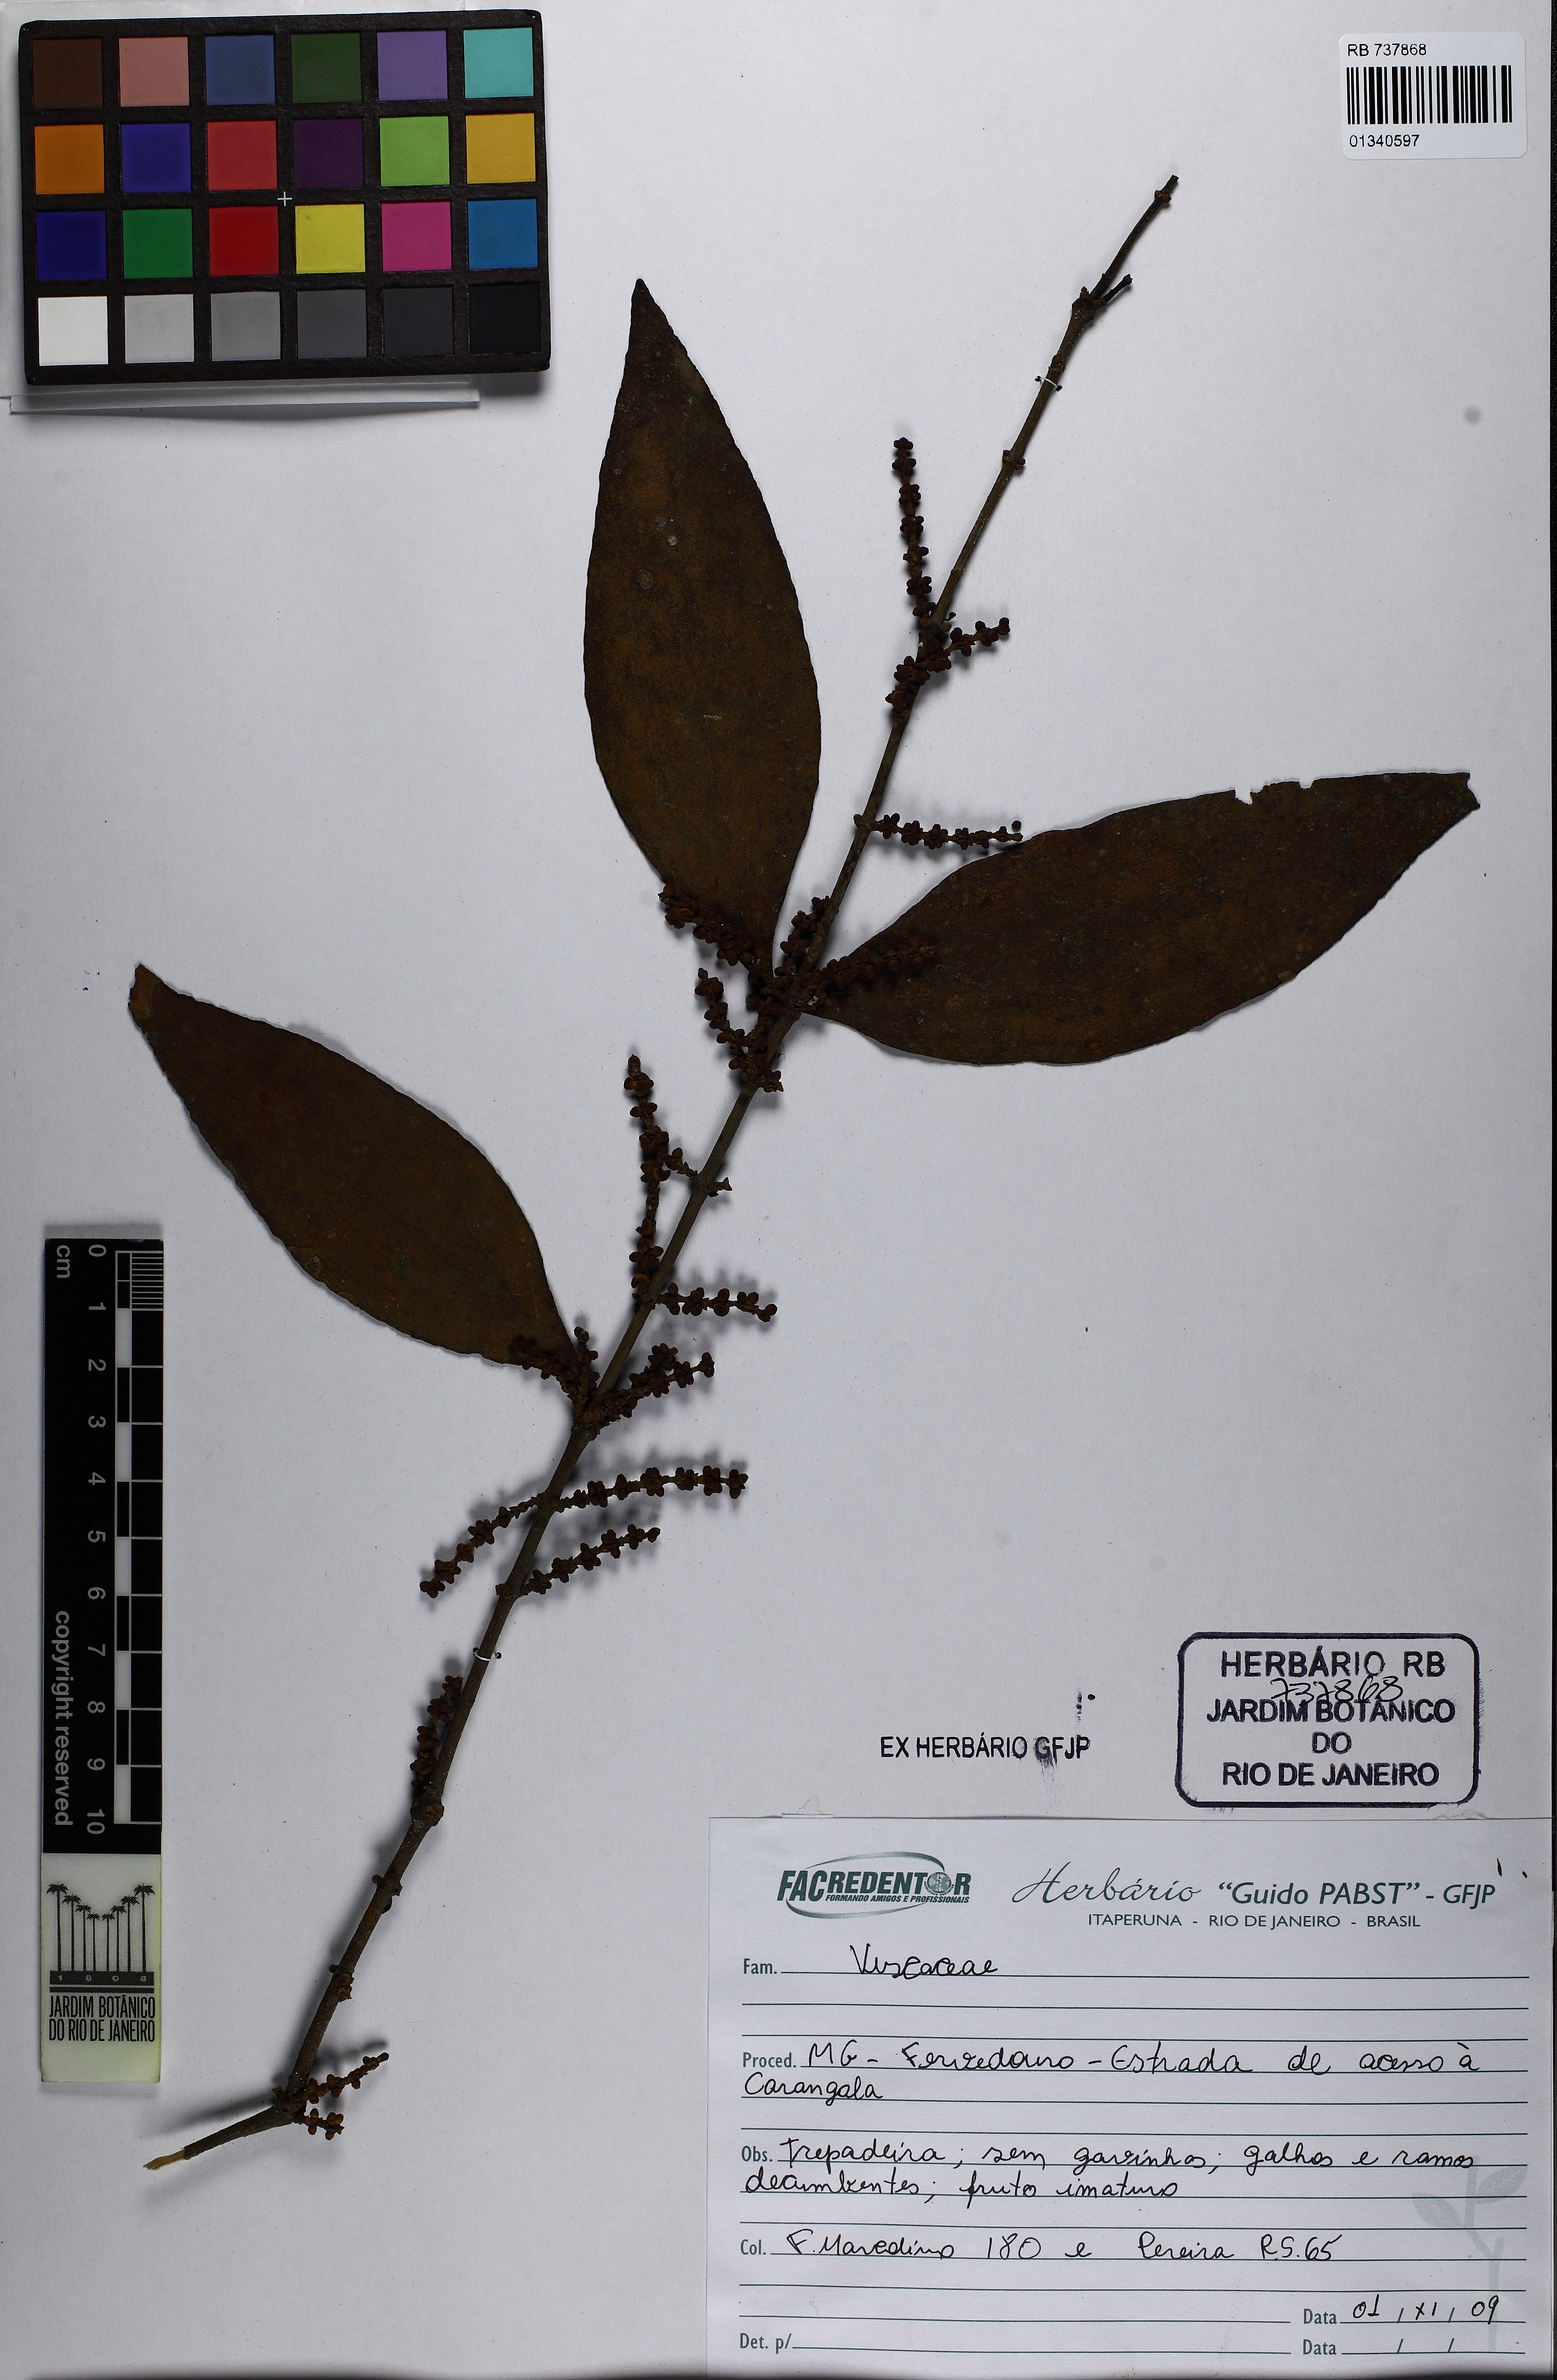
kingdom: Plantae
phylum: Tracheophyta
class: Magnoliopsida
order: Santalales
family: Viscaceae
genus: Phoradendron
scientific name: Phoradendron crassifolium
